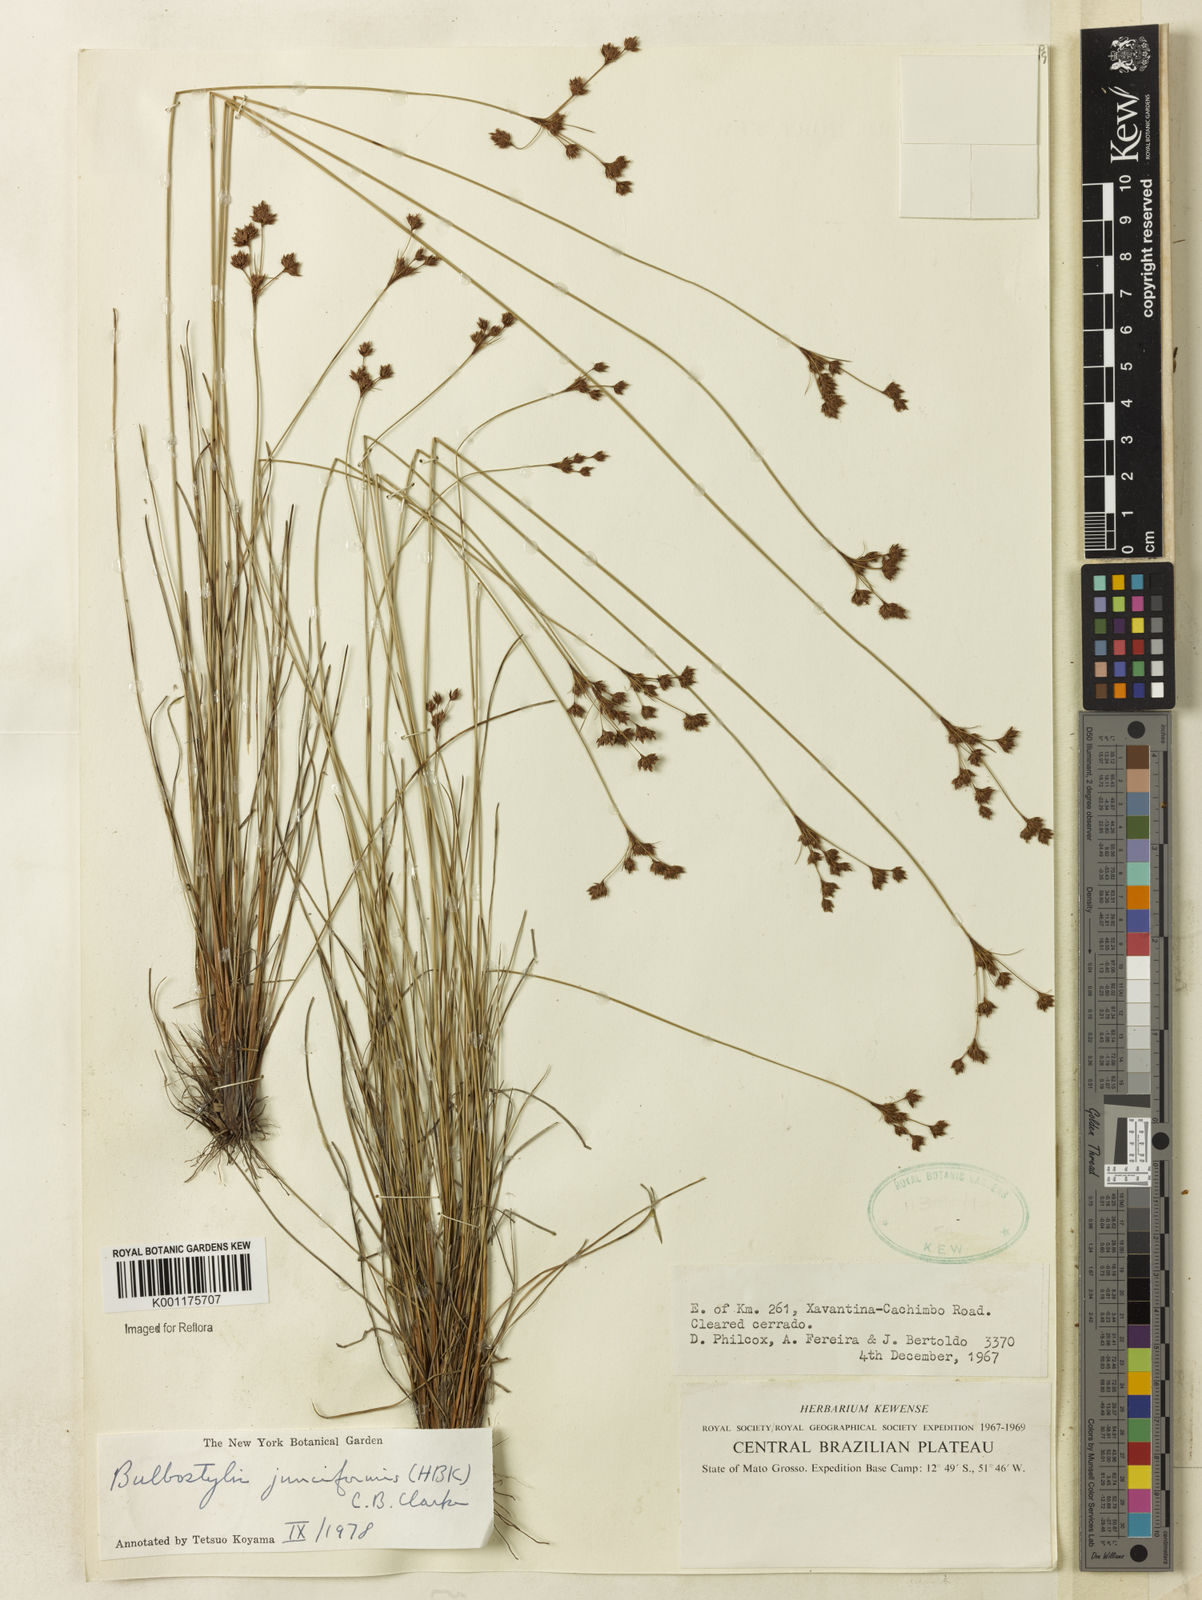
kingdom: Plantae
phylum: Tracheophyta
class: Liliopsida
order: Poales
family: Cyperaceae
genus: Bulbostylis
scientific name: Bulbostylis junciformis
